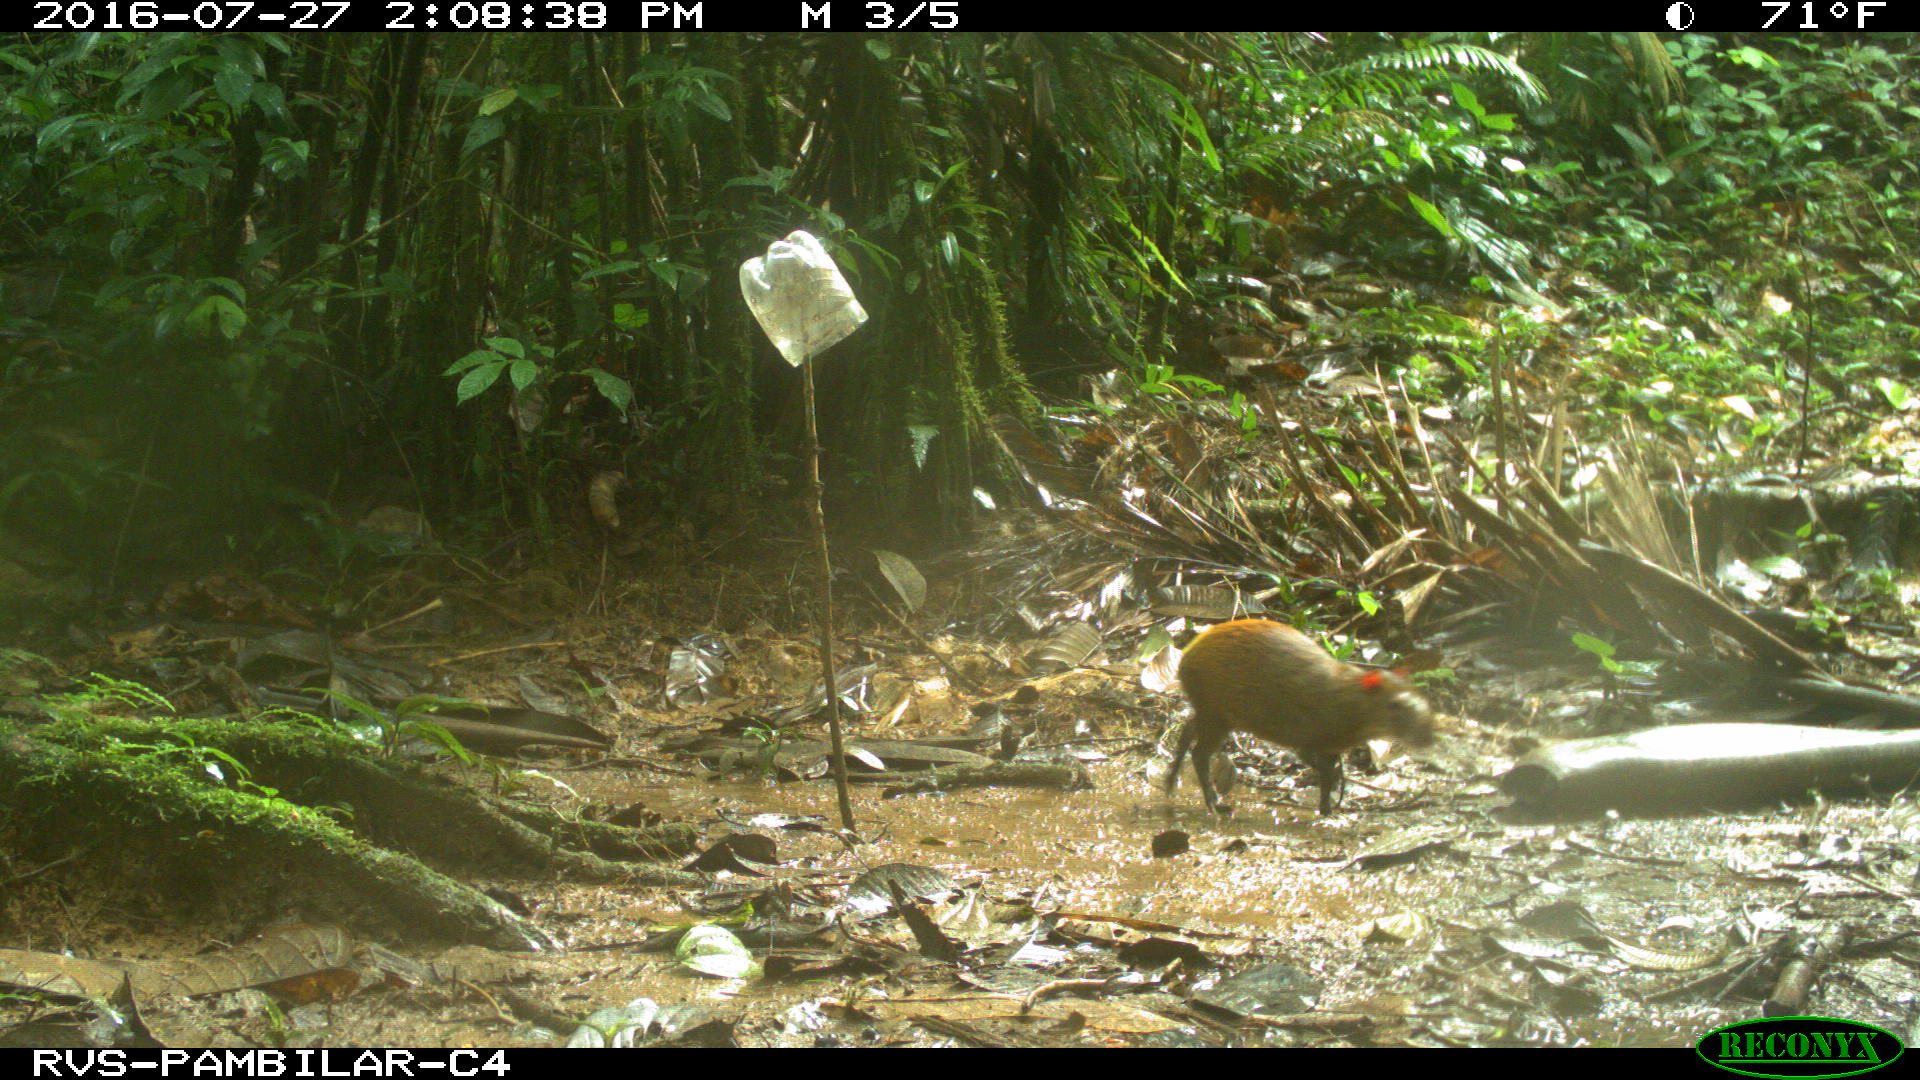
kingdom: Animalia
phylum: Chordata
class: Mammalia
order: Rodentia
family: Dasyproctidae
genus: Dasyprocta
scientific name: Dasyprocta punctata
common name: Central american agouti
